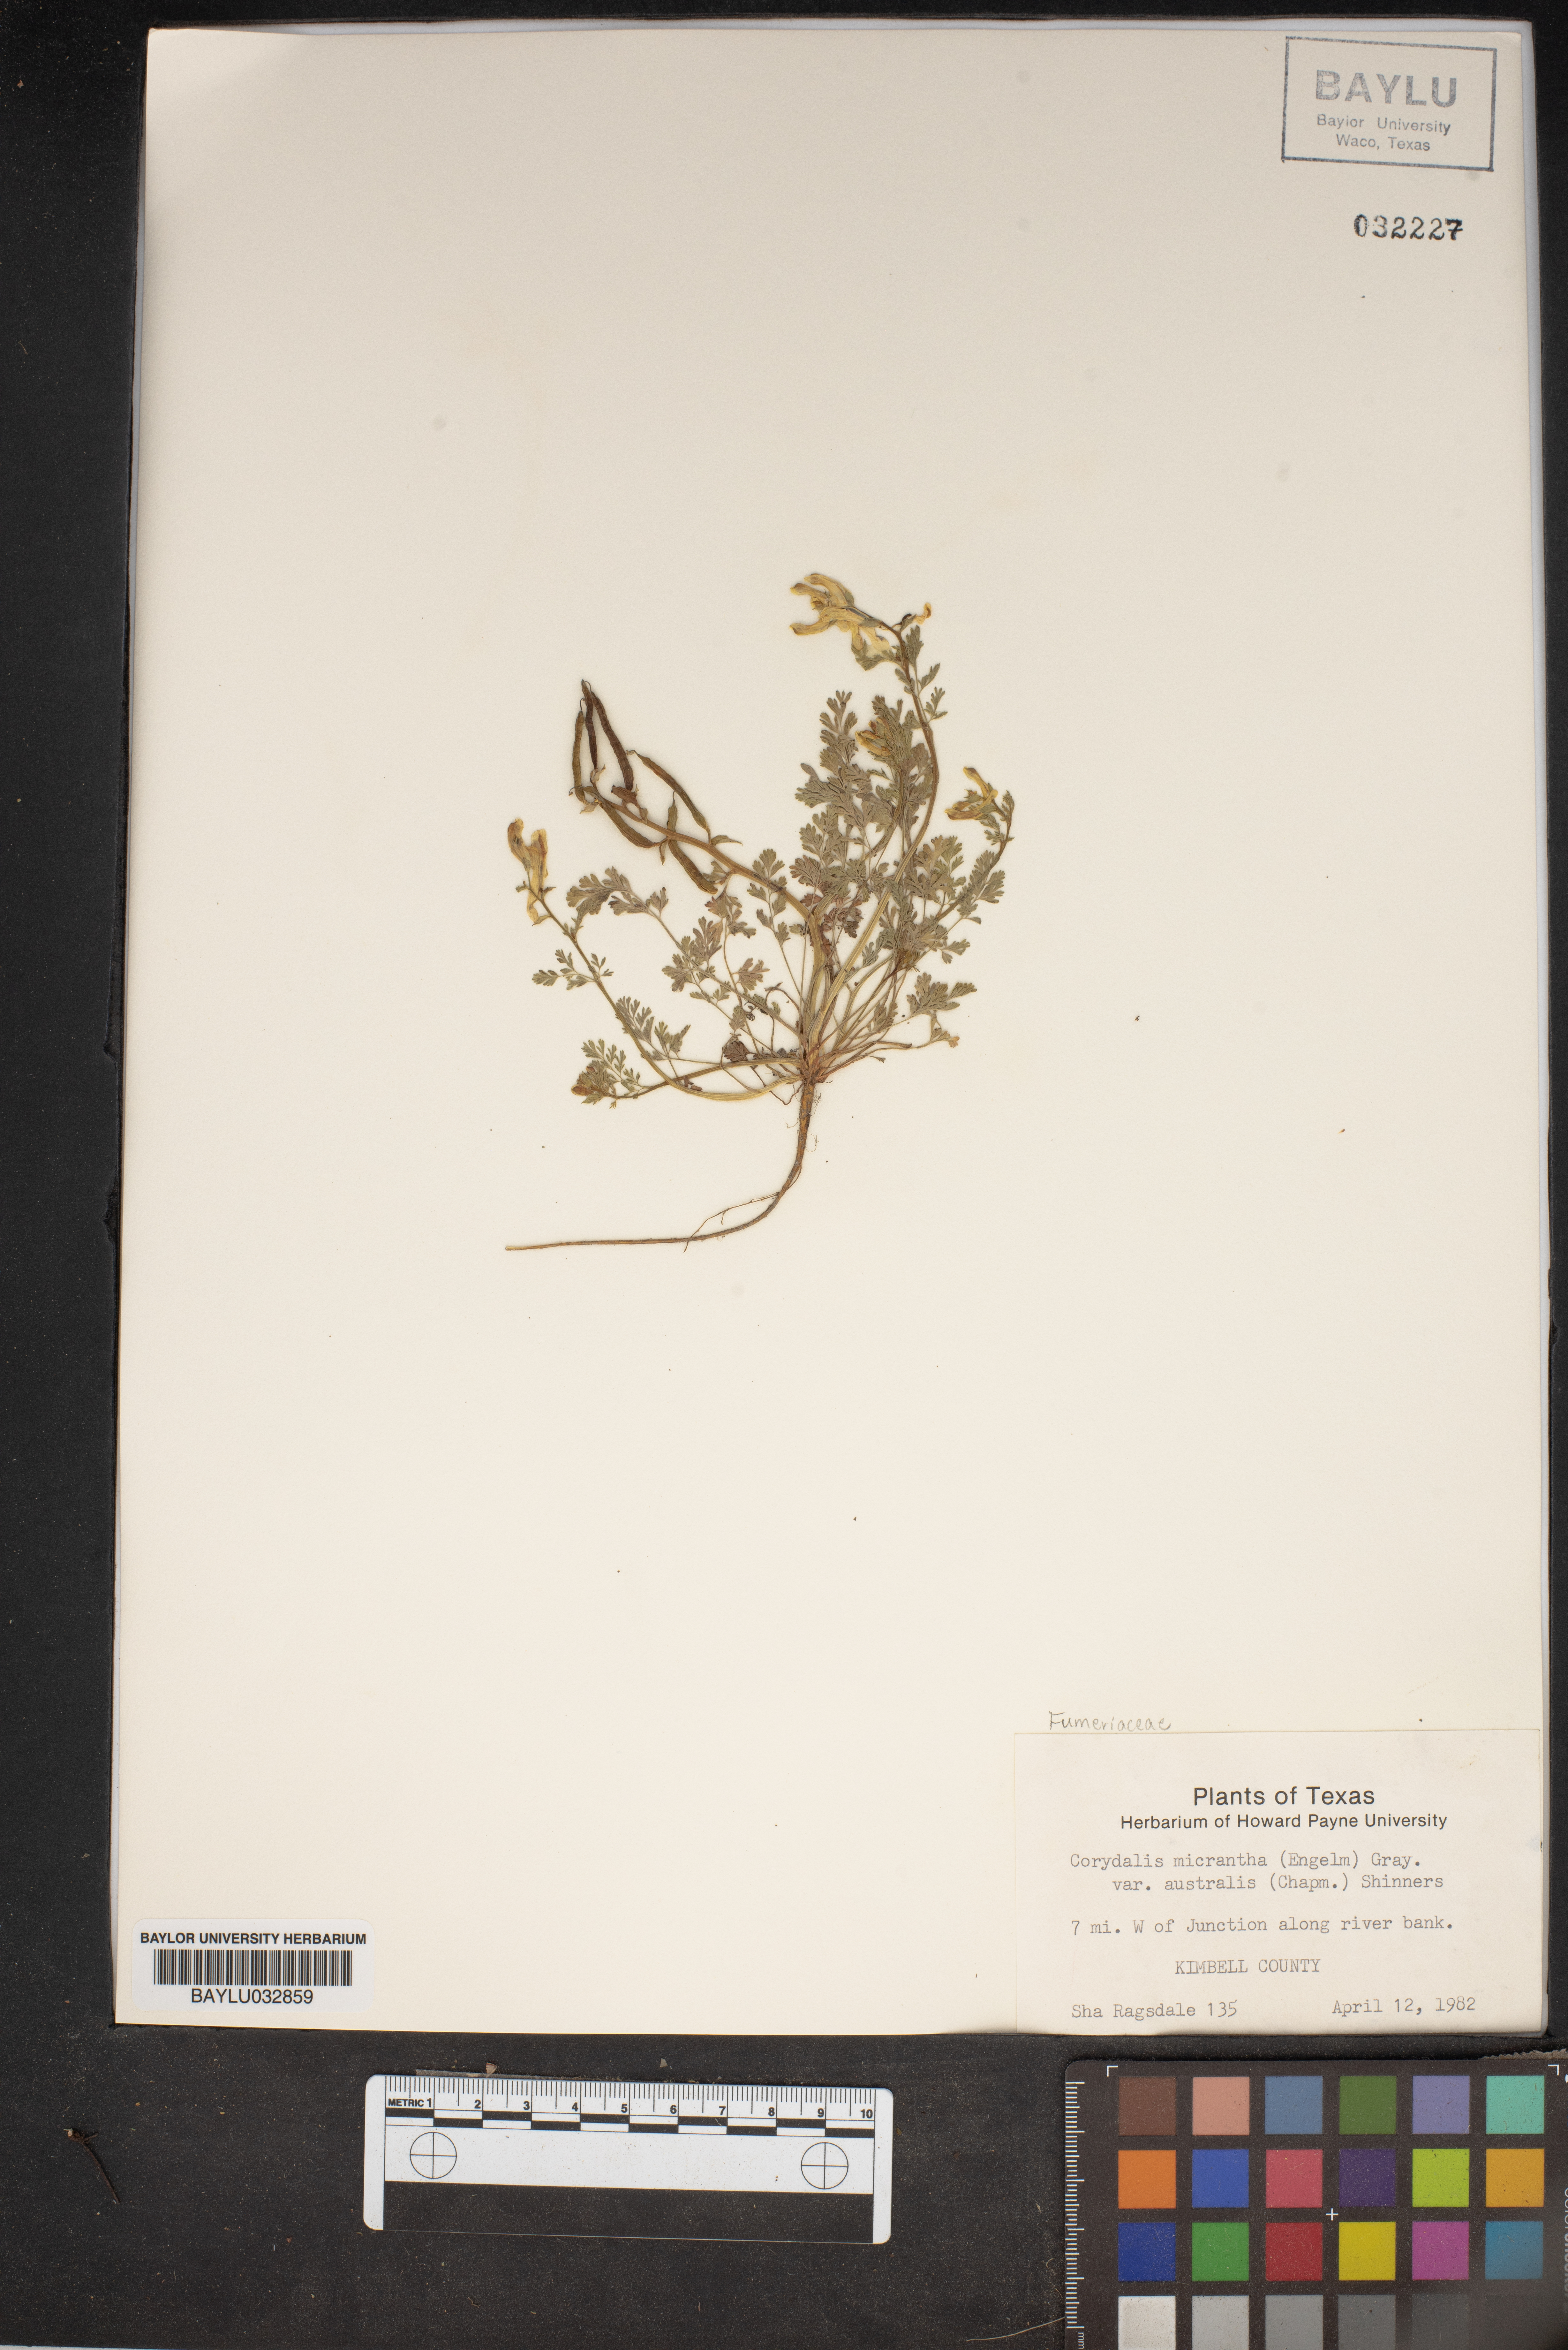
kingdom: Plantae
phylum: Tracheophyta
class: Magnoliopsida
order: Ranunculales
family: Papaveraceae
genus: Corydalis
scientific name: Corydalis micrantha
